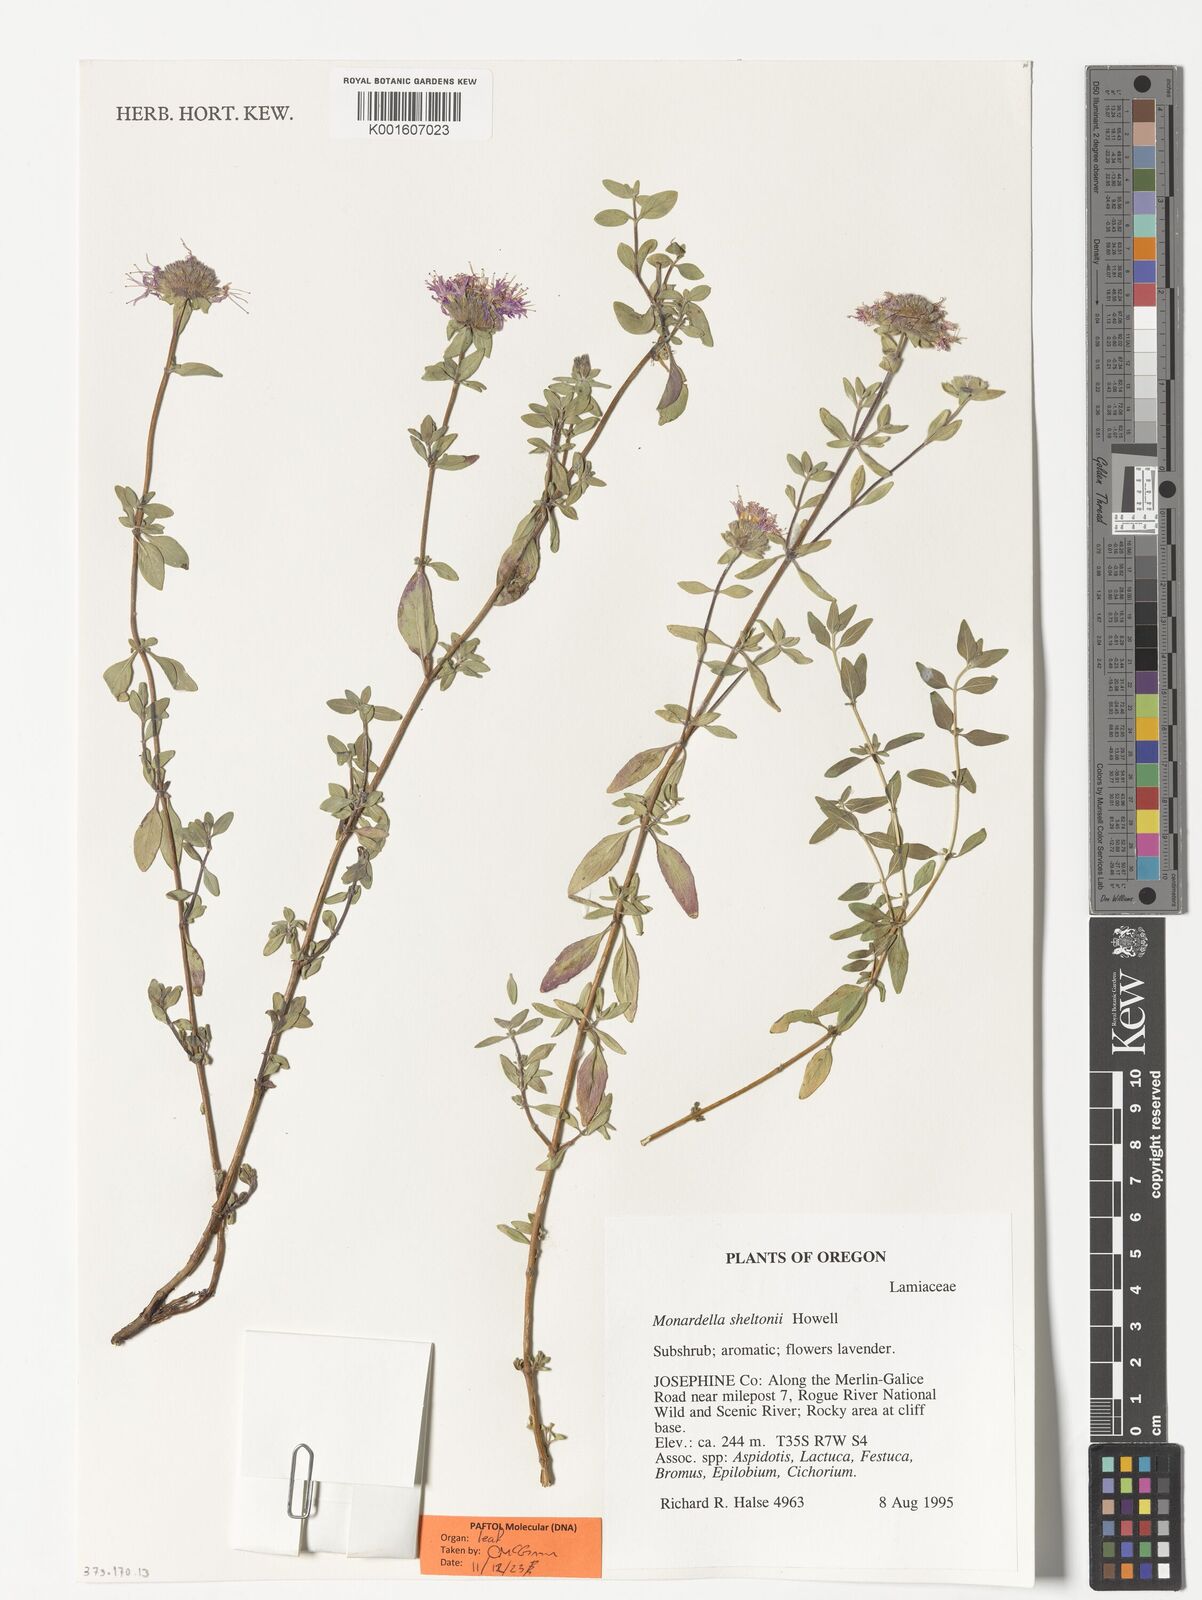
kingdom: Plantae
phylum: Tracheophyta
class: Magnoliopsida
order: Lamiales
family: Lamiaceae
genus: Monardella
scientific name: Monardella sheltonii
